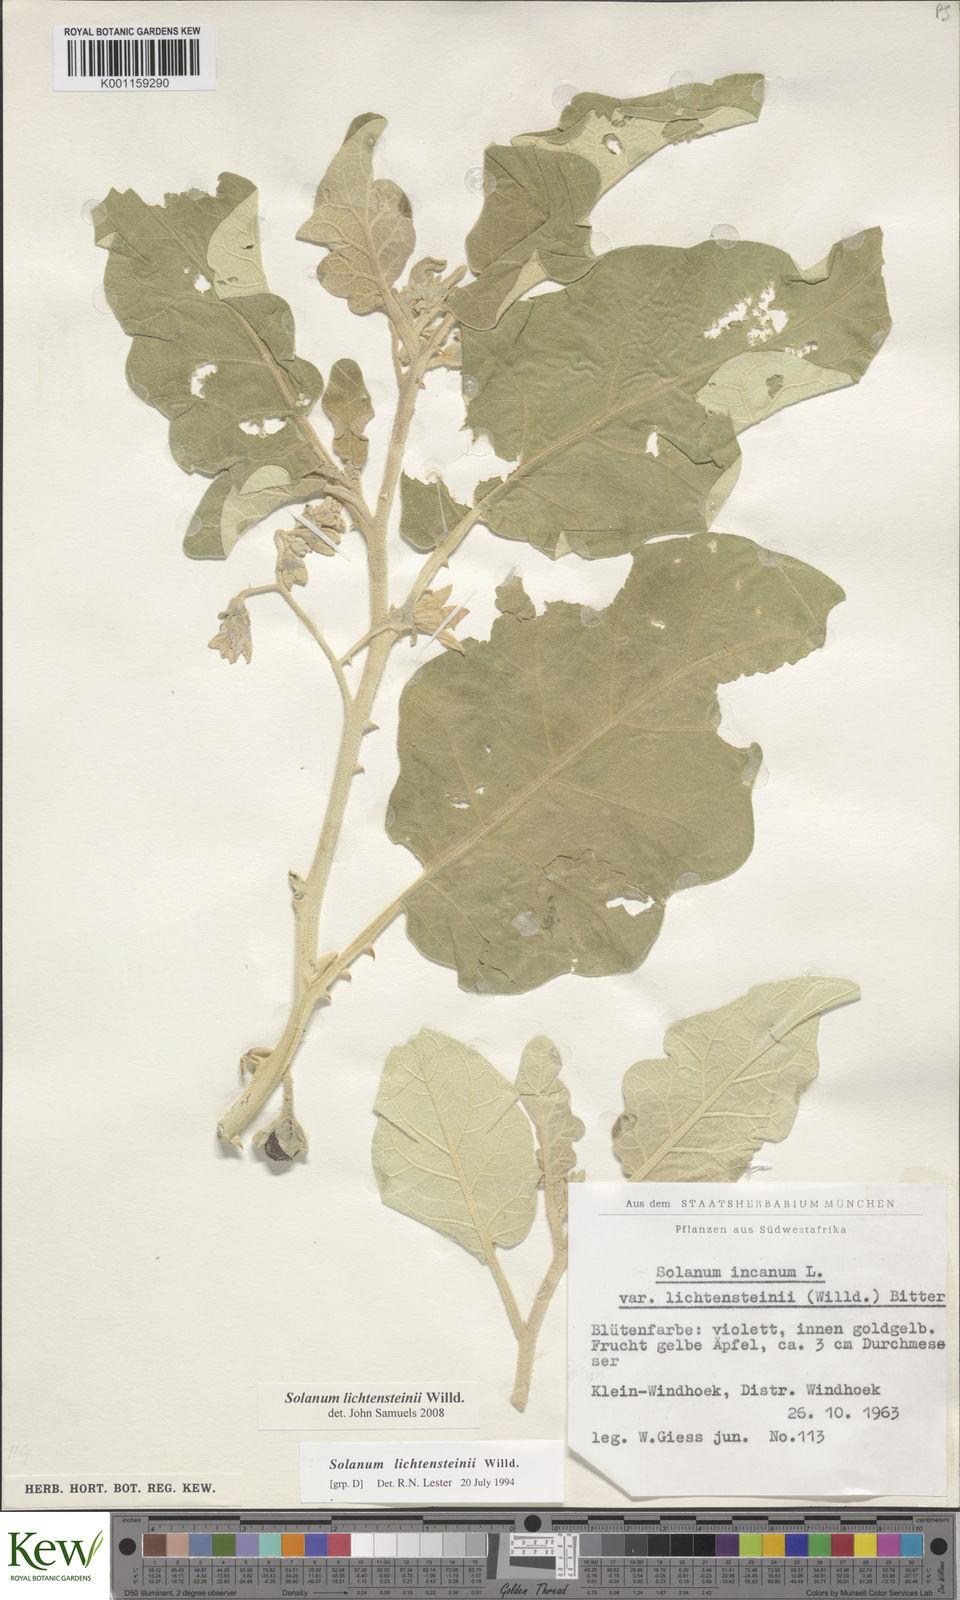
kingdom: Plantae
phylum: Tracheophyta
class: Magnoliopsida
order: Solanales
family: Solanaceae
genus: Solanum
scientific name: Solanum lichtensteinii
